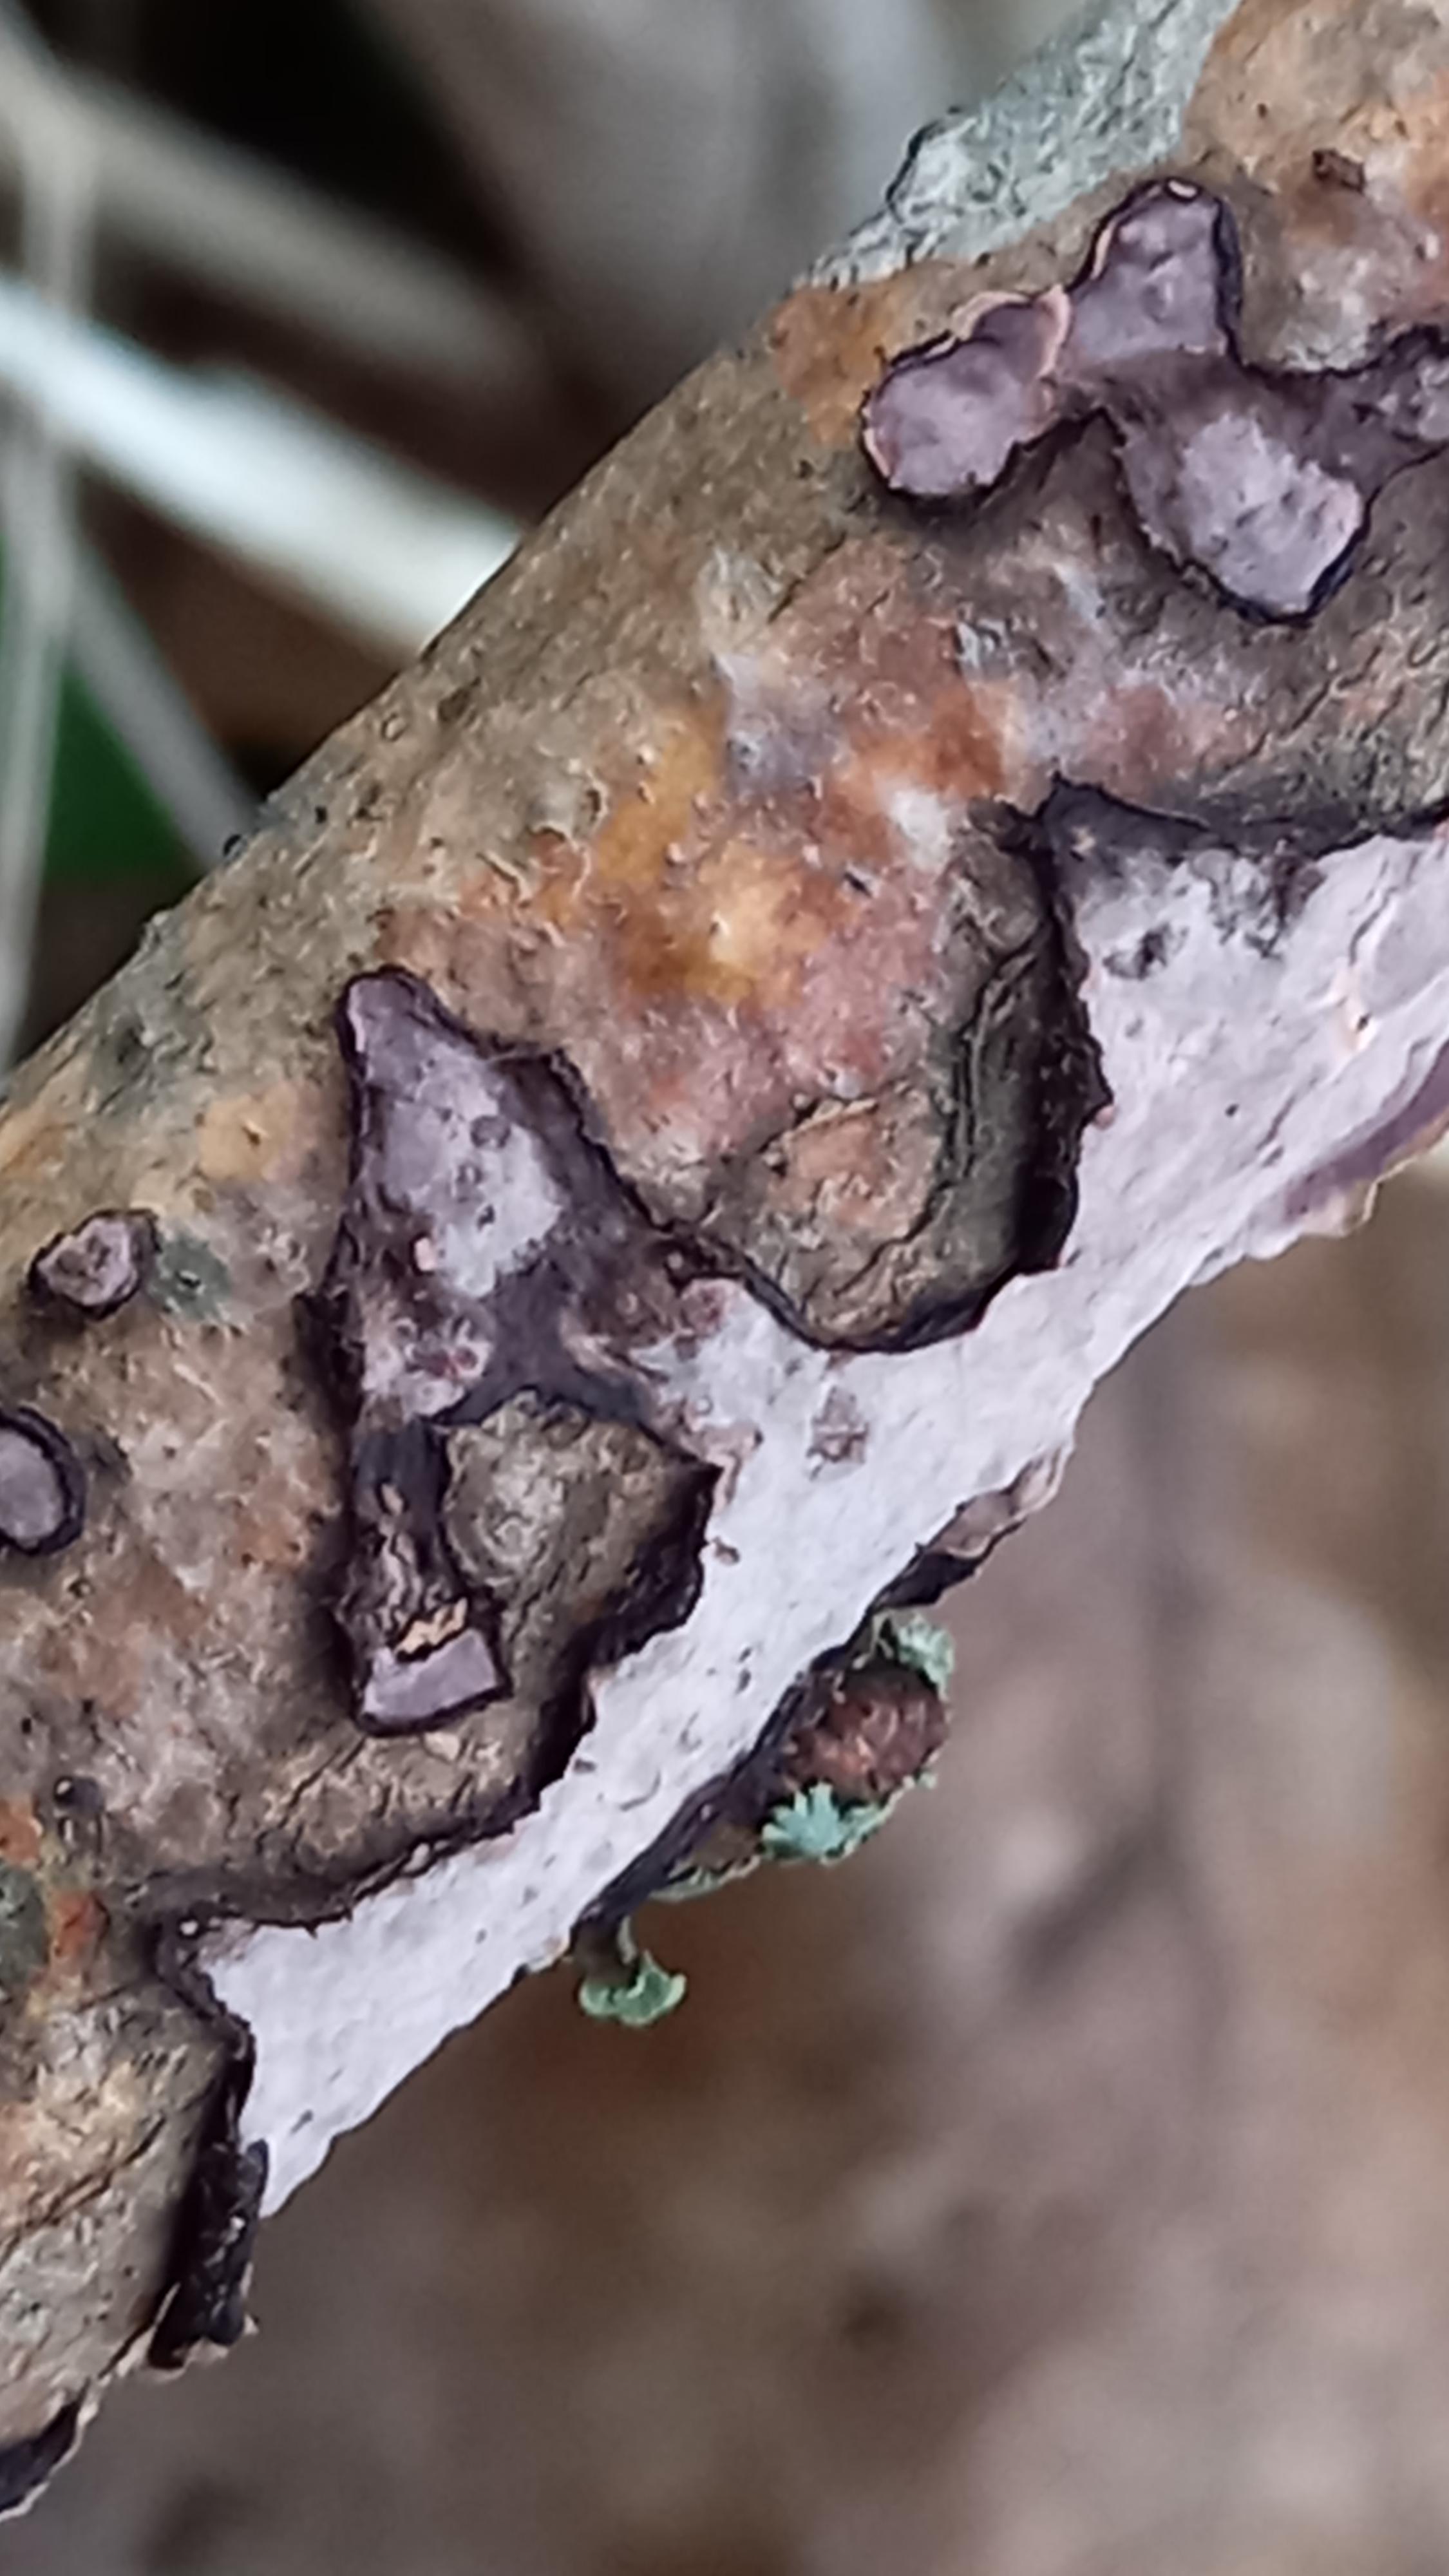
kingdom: Fungi
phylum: Basidiomycota
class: Agaricomycetes
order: Russulales
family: Peniophoraceae
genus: Peniophora
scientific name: Peniophora quercina
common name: ege-voksskind
